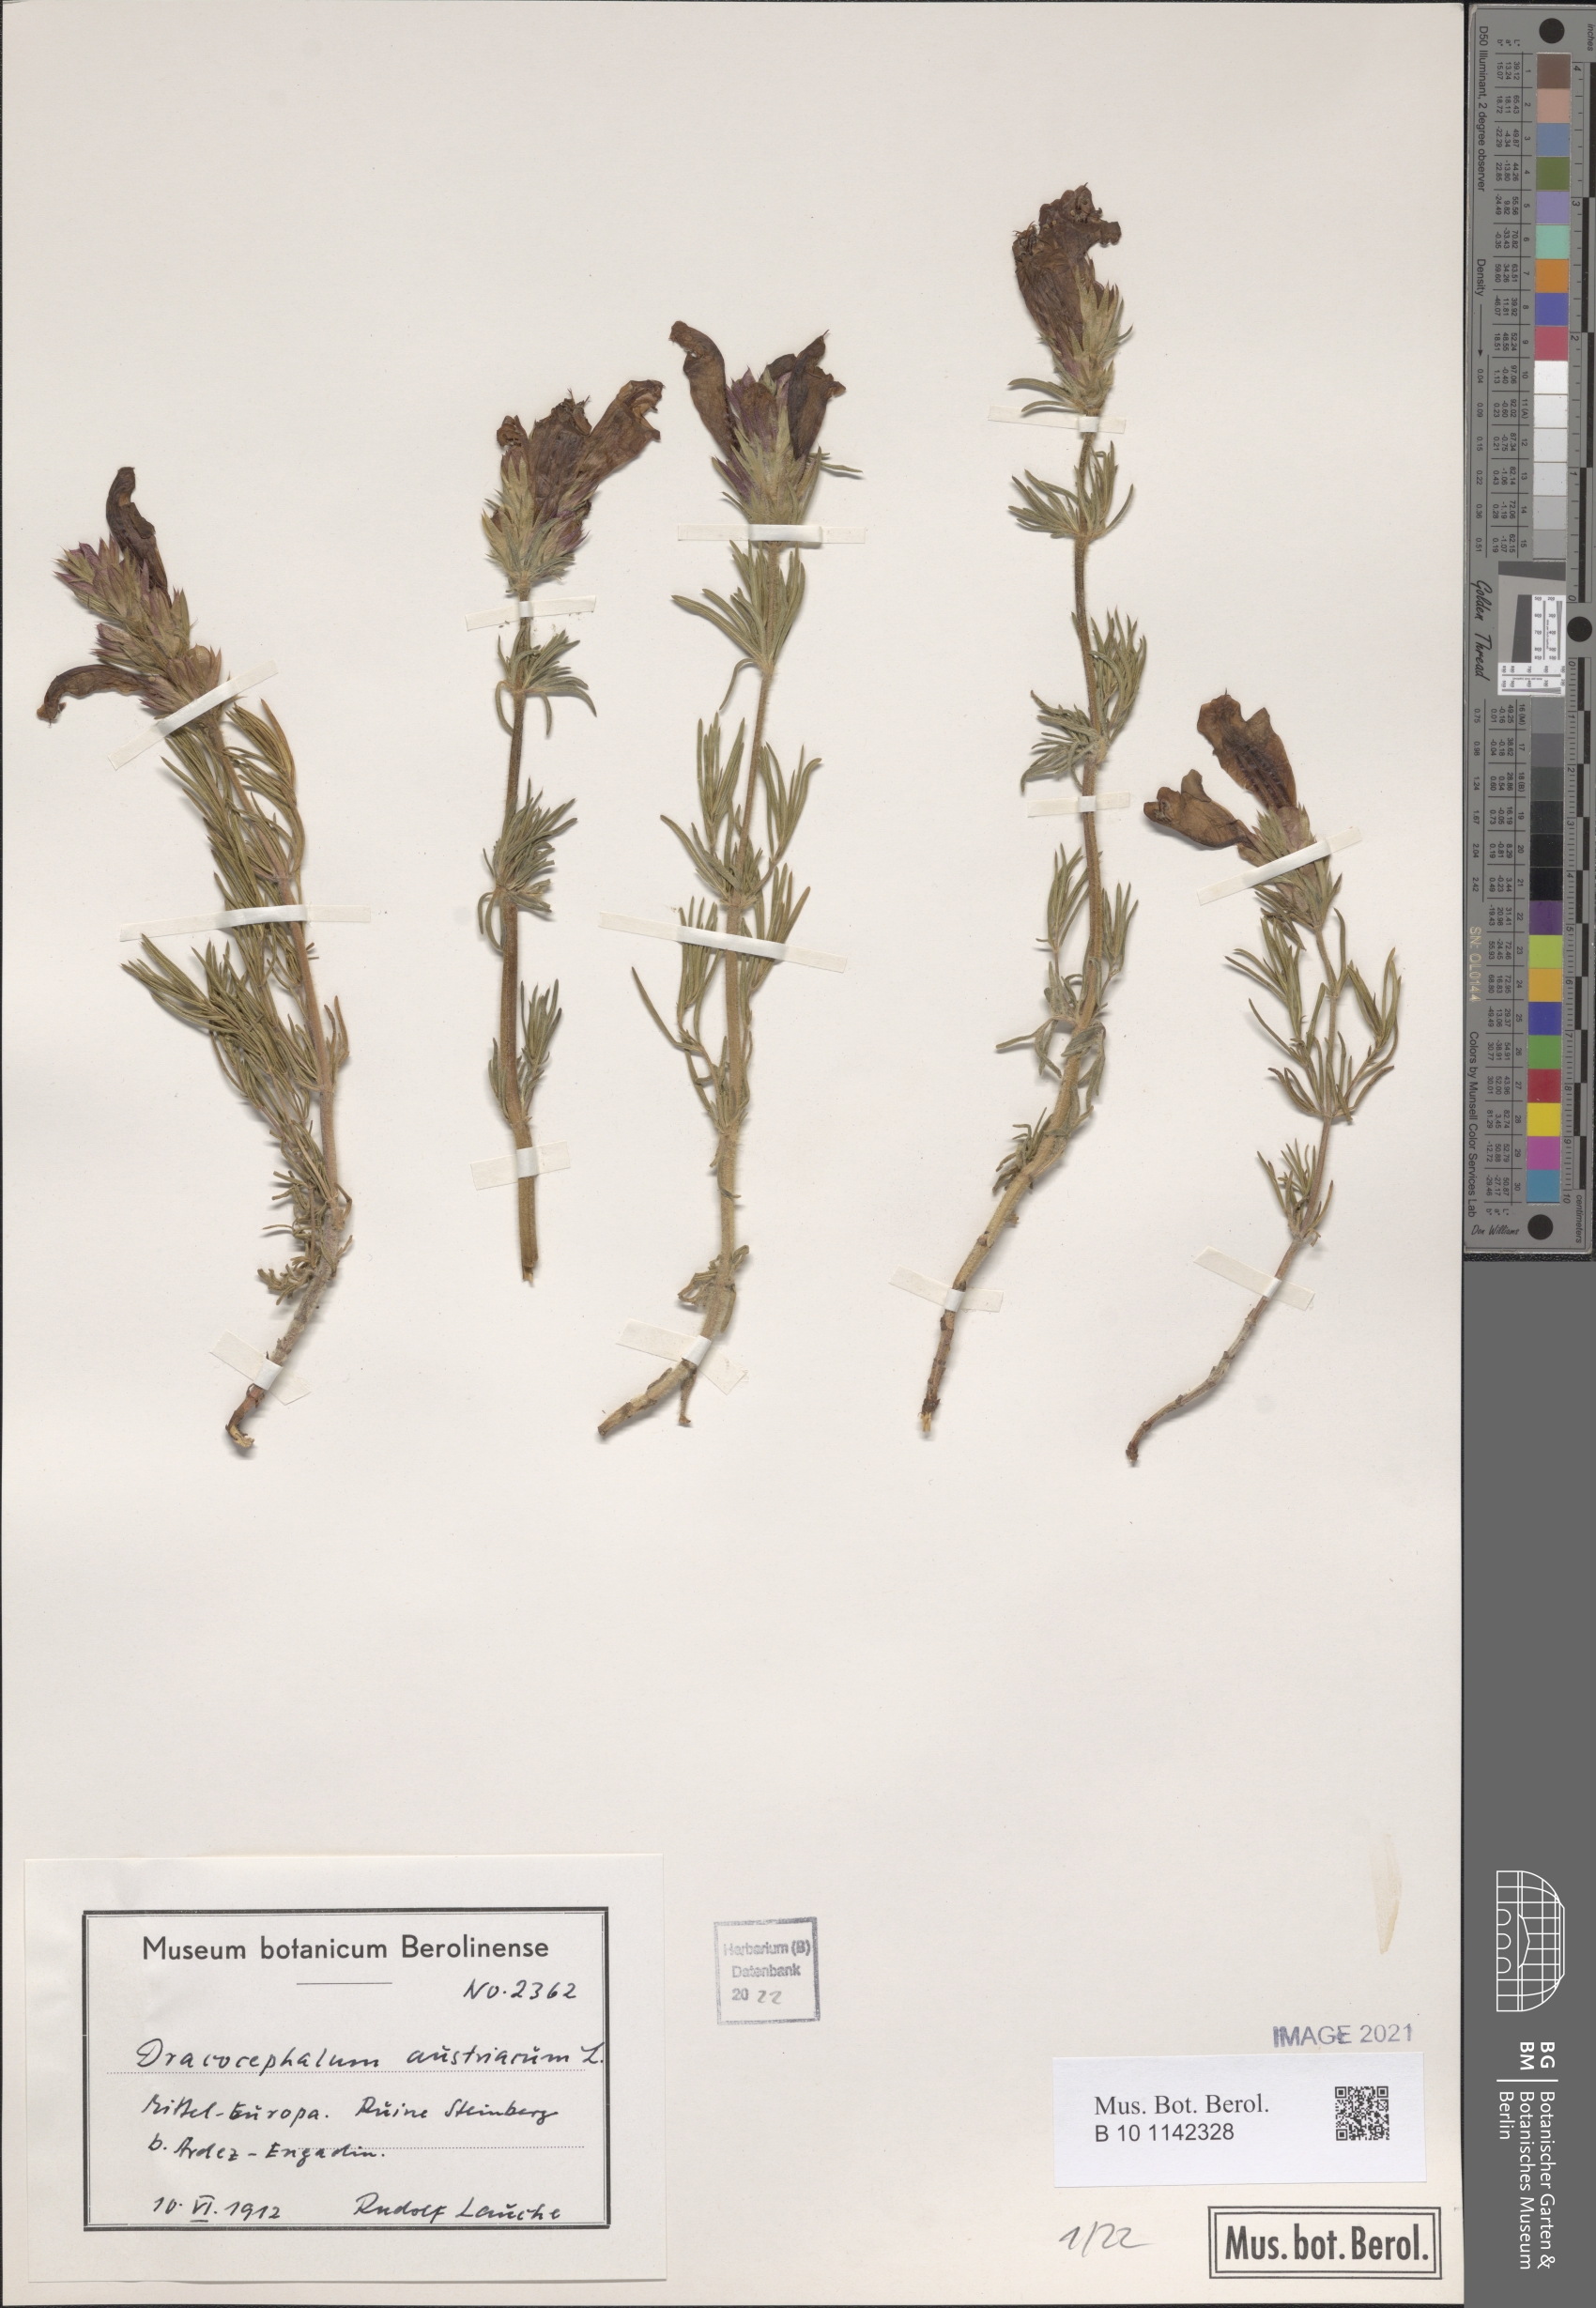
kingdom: Plantae
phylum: Tracheophyta
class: Magnoliopsida
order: Lamiales
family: Lamiaceae
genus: Dracocephalum
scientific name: Dracocephalum austriacum
